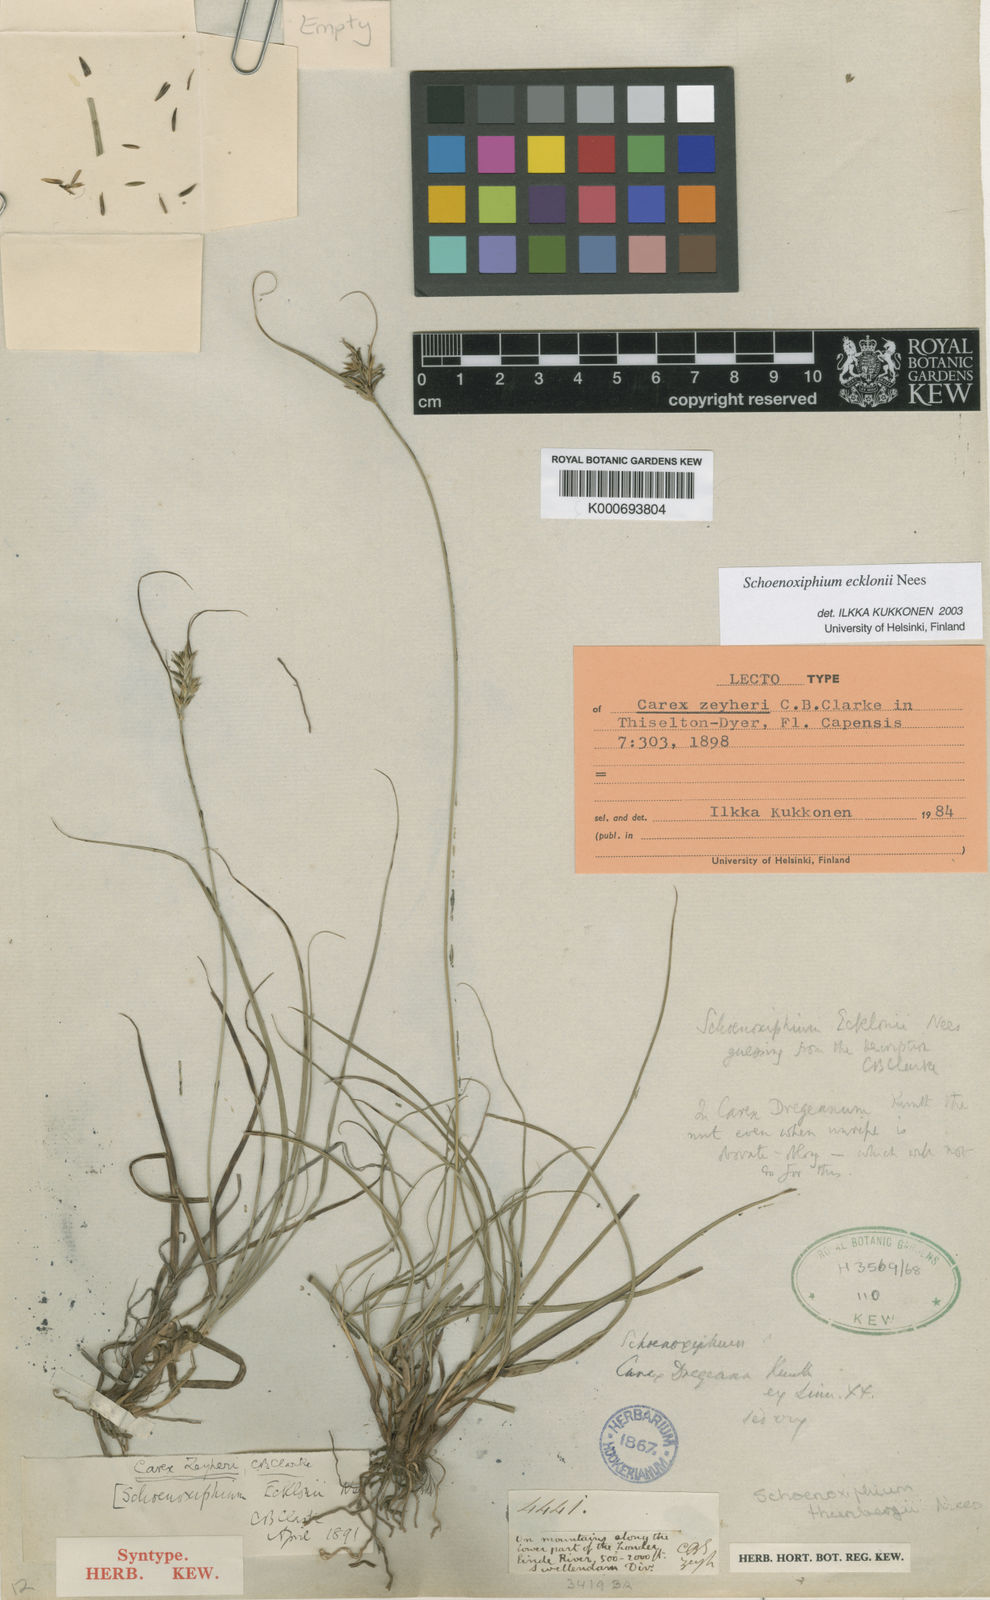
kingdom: Plantae
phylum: Tracheophyta
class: Liliopsida
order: Poales
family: Cyperaceae
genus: Carex
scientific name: Carex capensis
